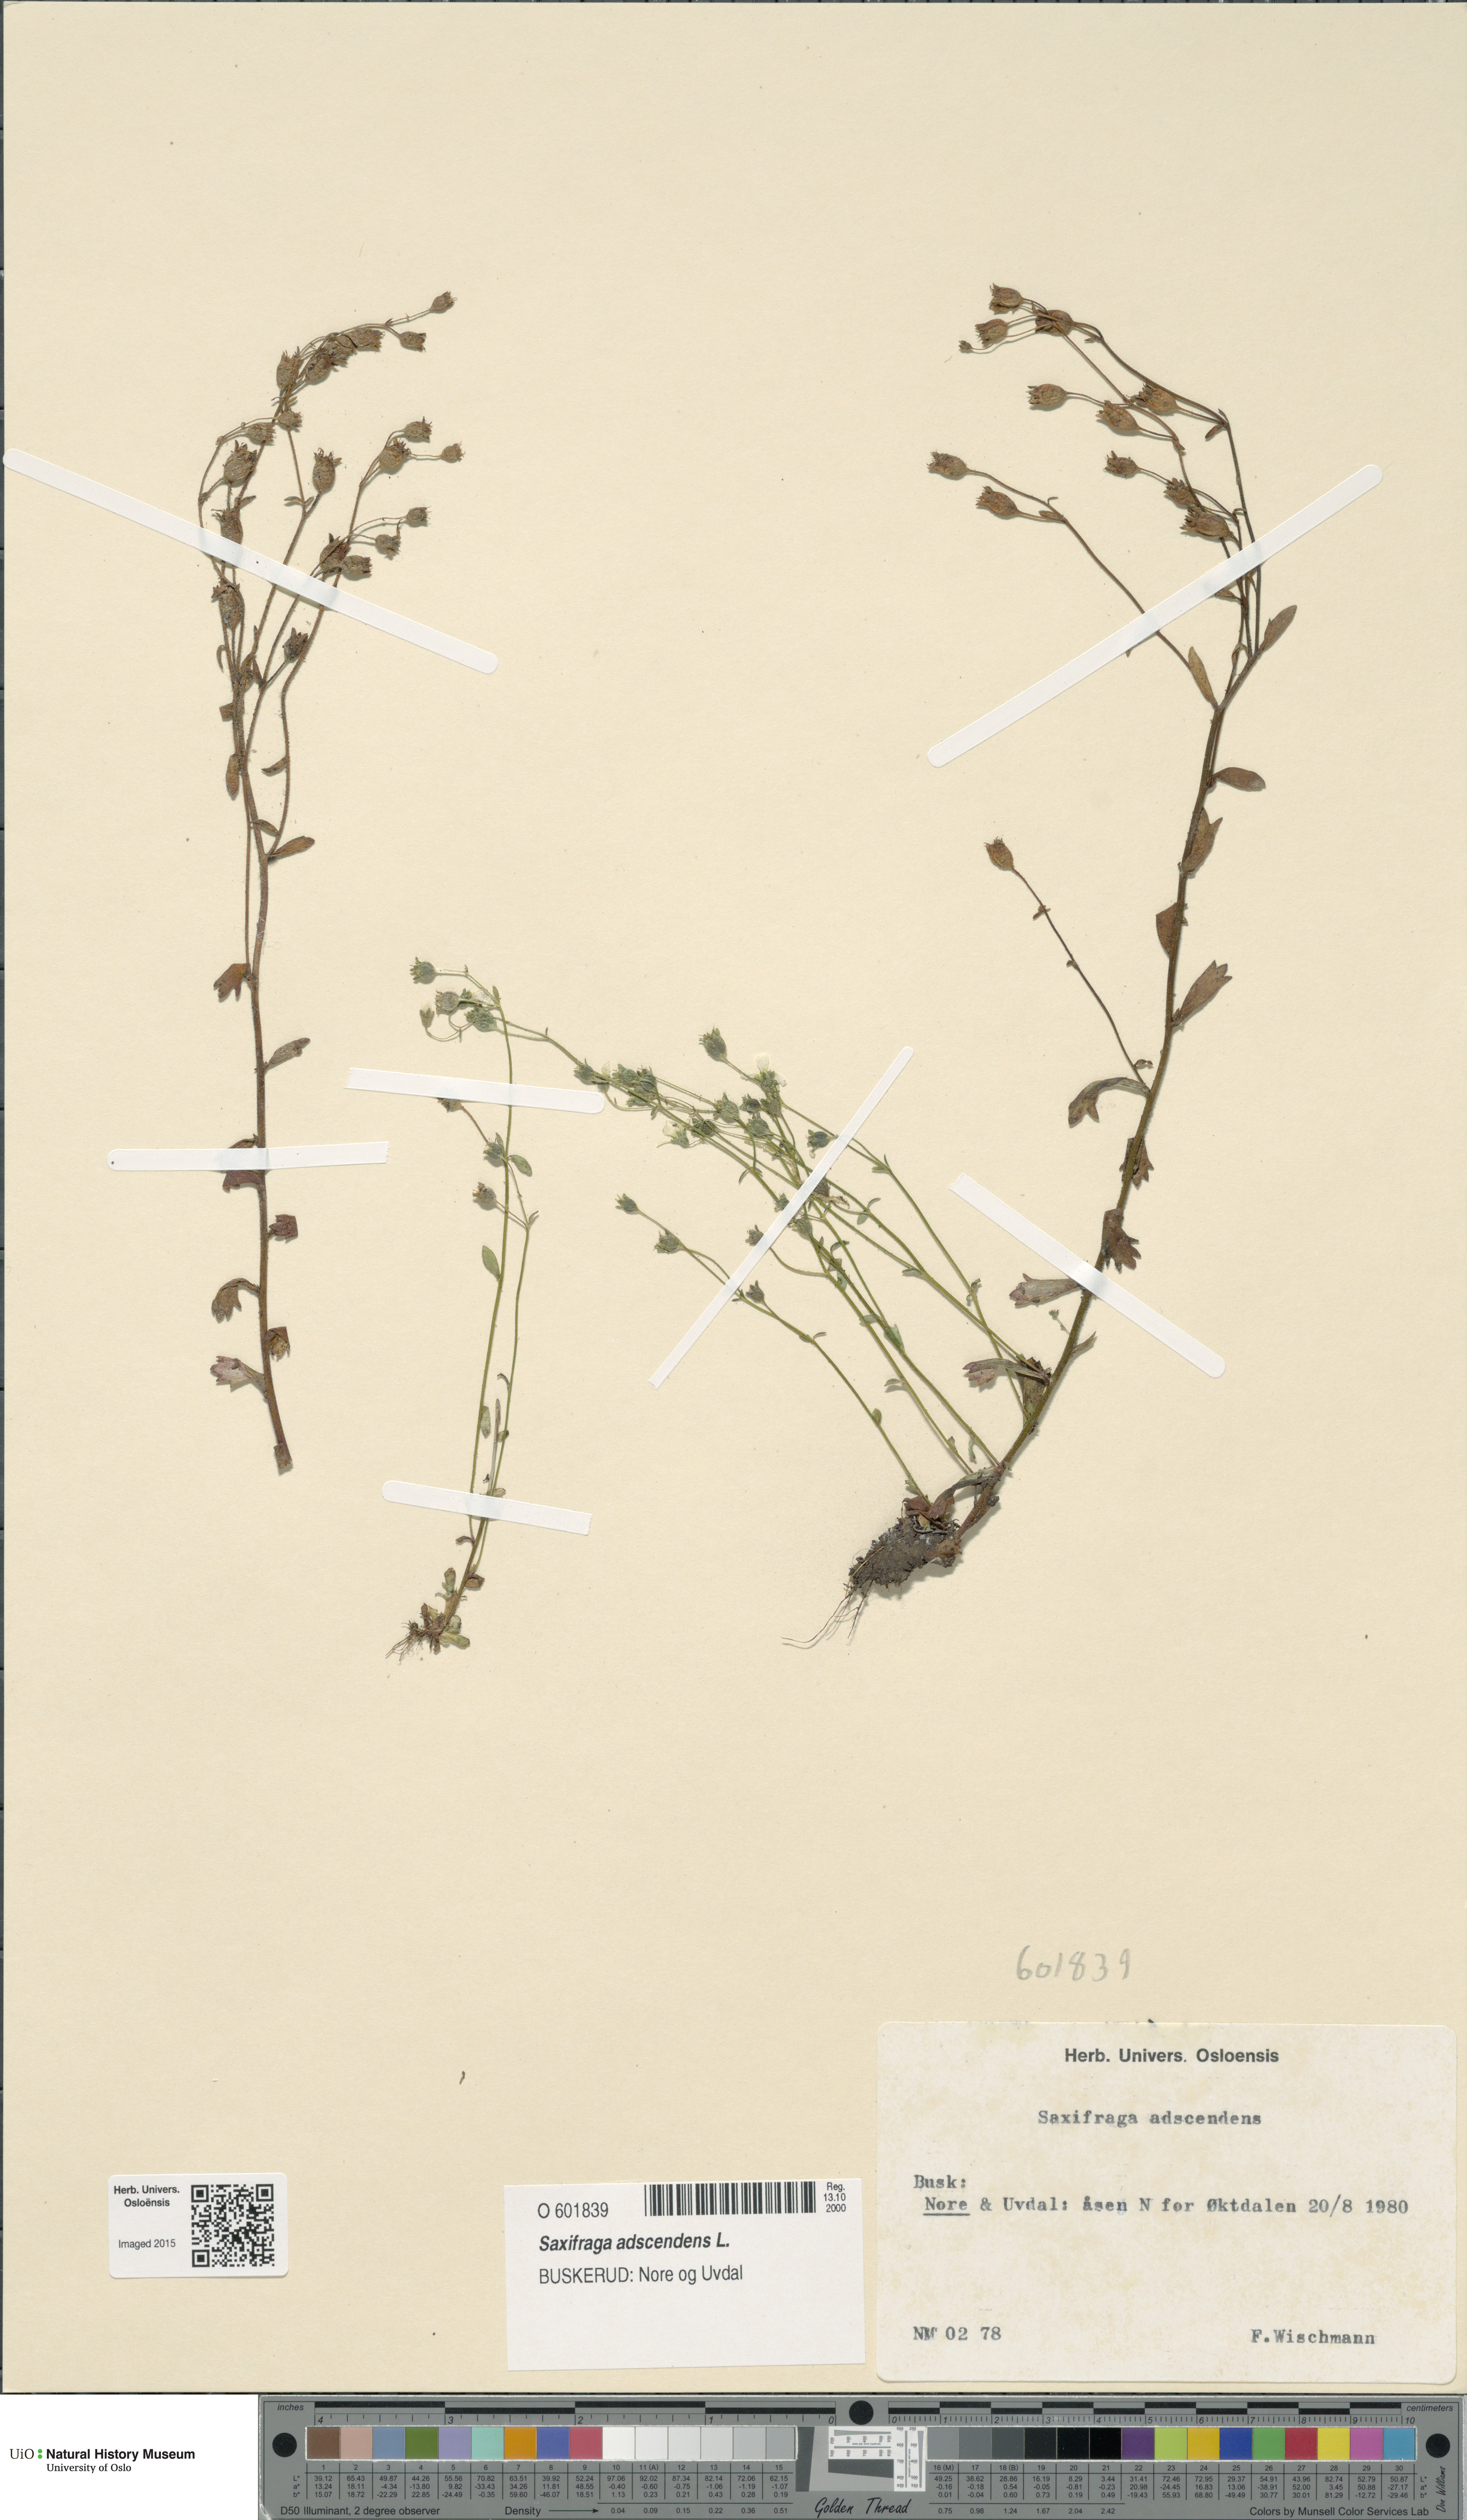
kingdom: Plantae
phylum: Tracheophyta
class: Magnoliopsida
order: Saxifragales
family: Saxifragaceae
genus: Saxifraga
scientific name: Saxifraga adscendens
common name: Ascending saxifrage
